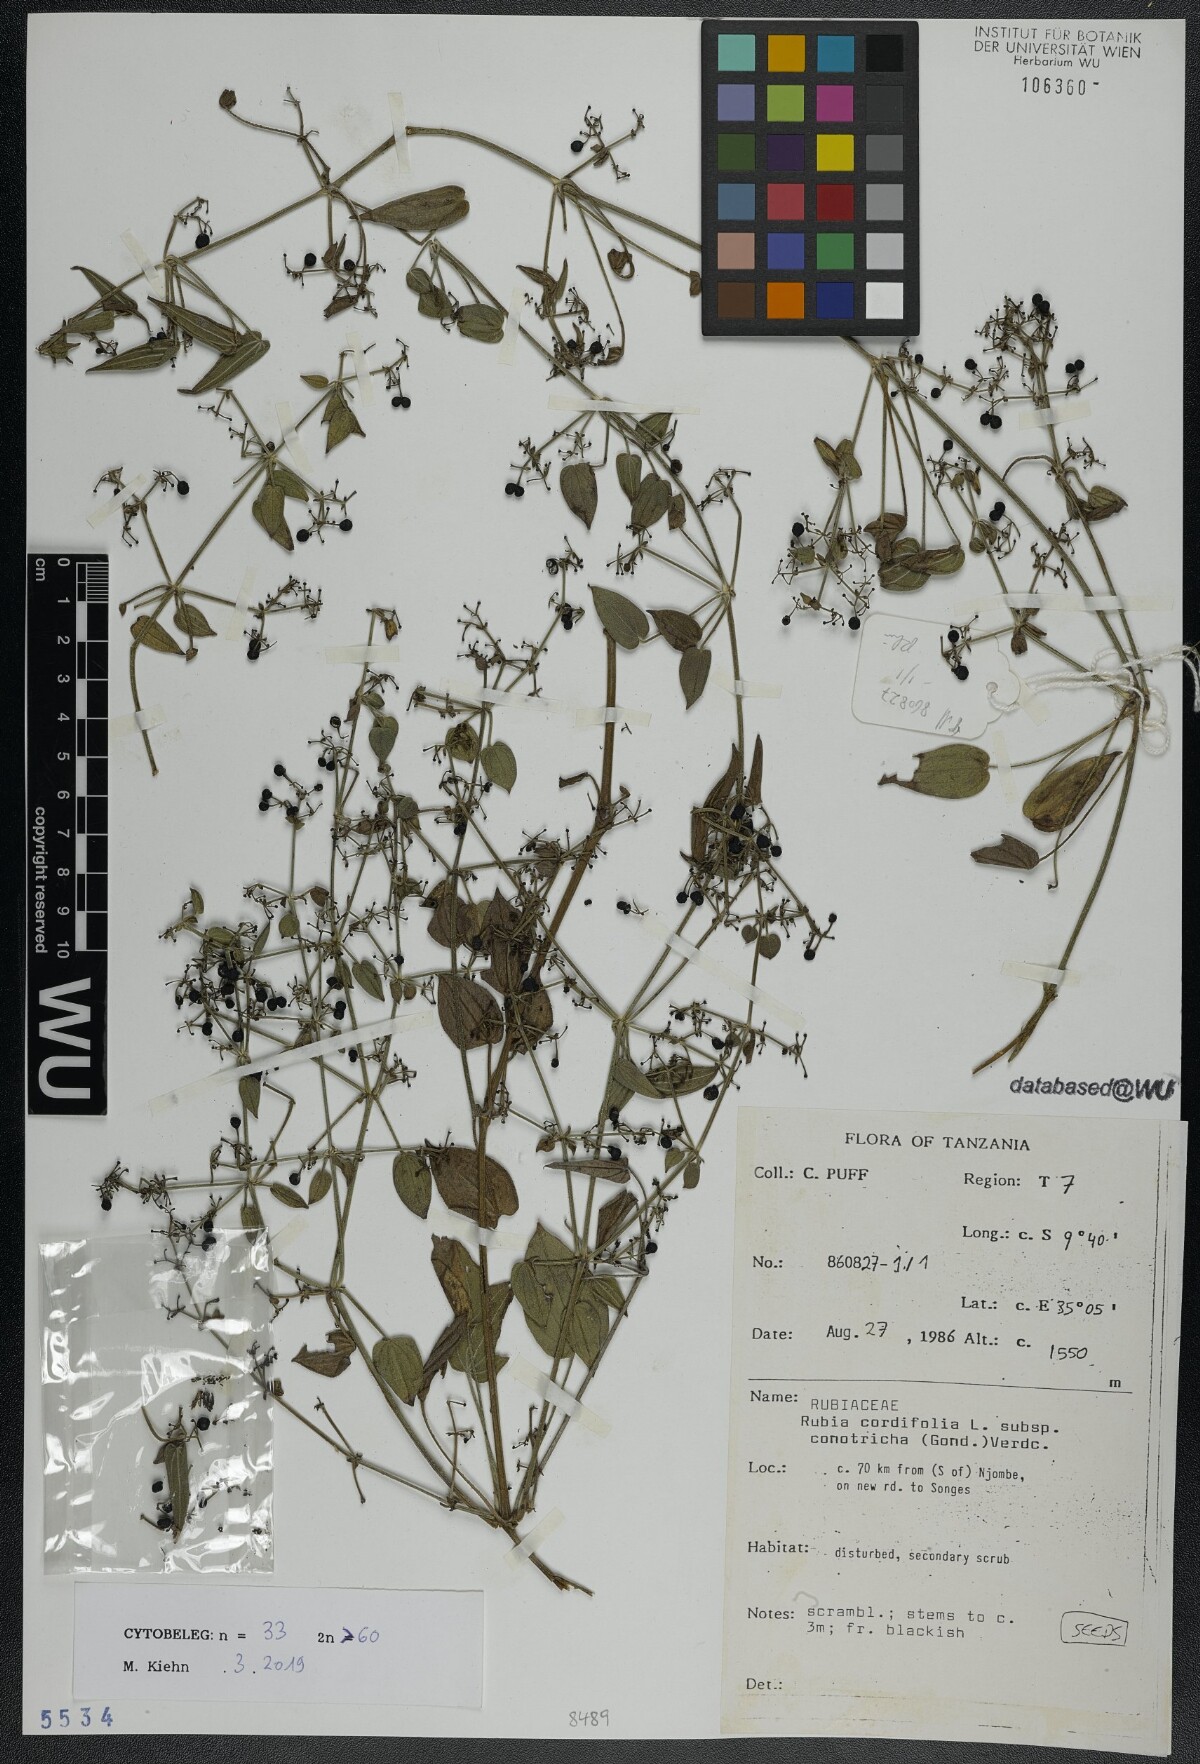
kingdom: Plantae
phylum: Tracheophyta
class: Magnoliopsida
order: Gentianales
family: Rubiaceae
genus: Rubia
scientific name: Rubia cordifolia
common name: Indian madder
